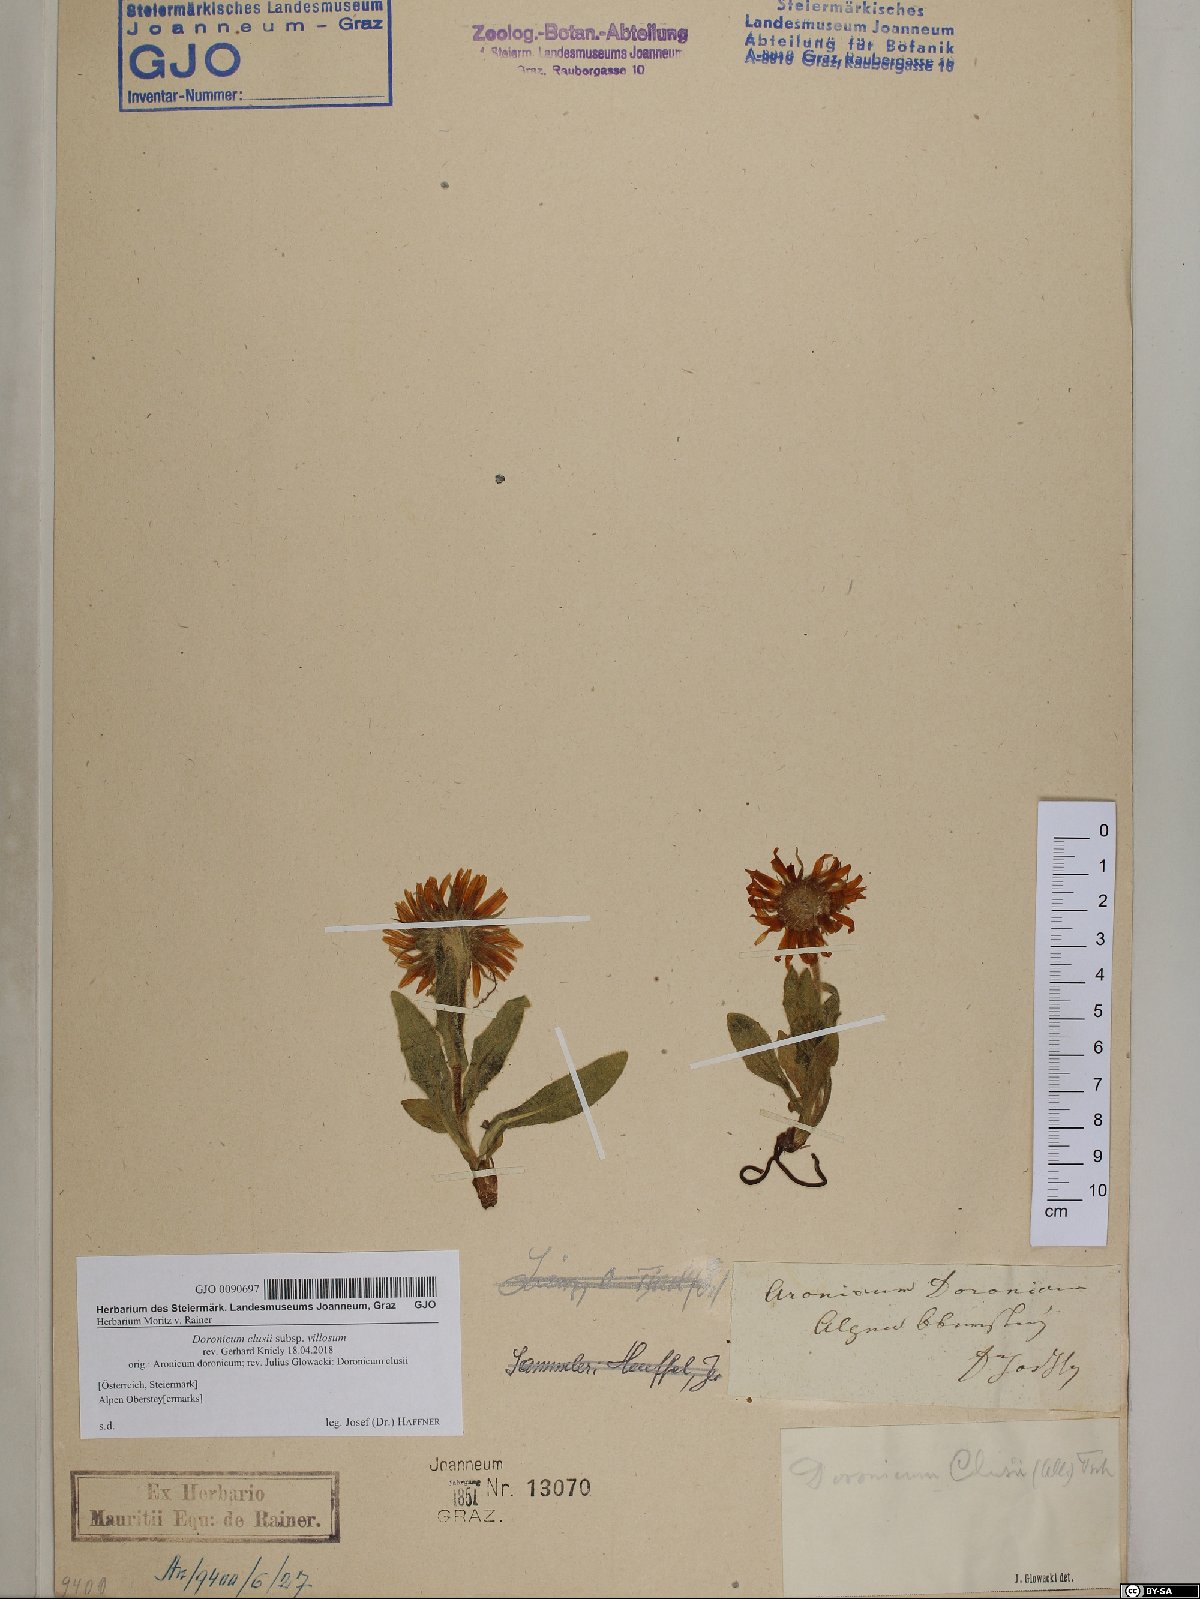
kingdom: Plantae
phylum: Tracheophyta
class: Magnoliopsida
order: Asterales
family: Asteraceae
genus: Doronicum
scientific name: Doronicum clusii
